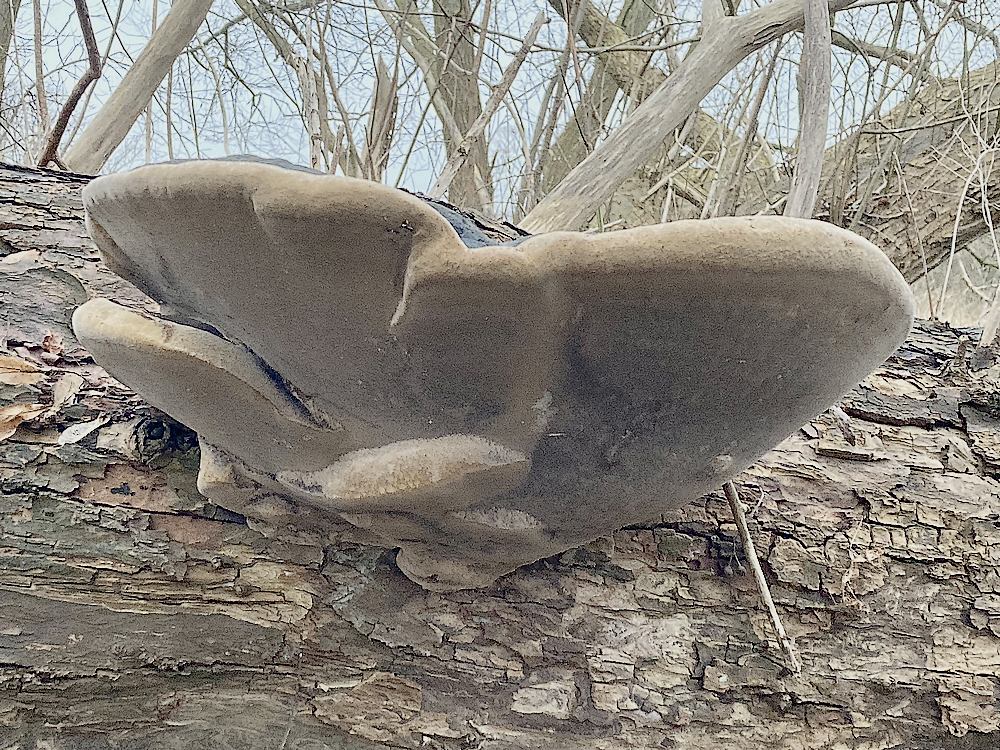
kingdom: Fungi
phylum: Basidiomycota
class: Agaricomycetes
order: Hymenochaetales
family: Hymenochaetaceae
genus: Phellinus
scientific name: Phellinus populicola
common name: poppel-ildporesvamp
